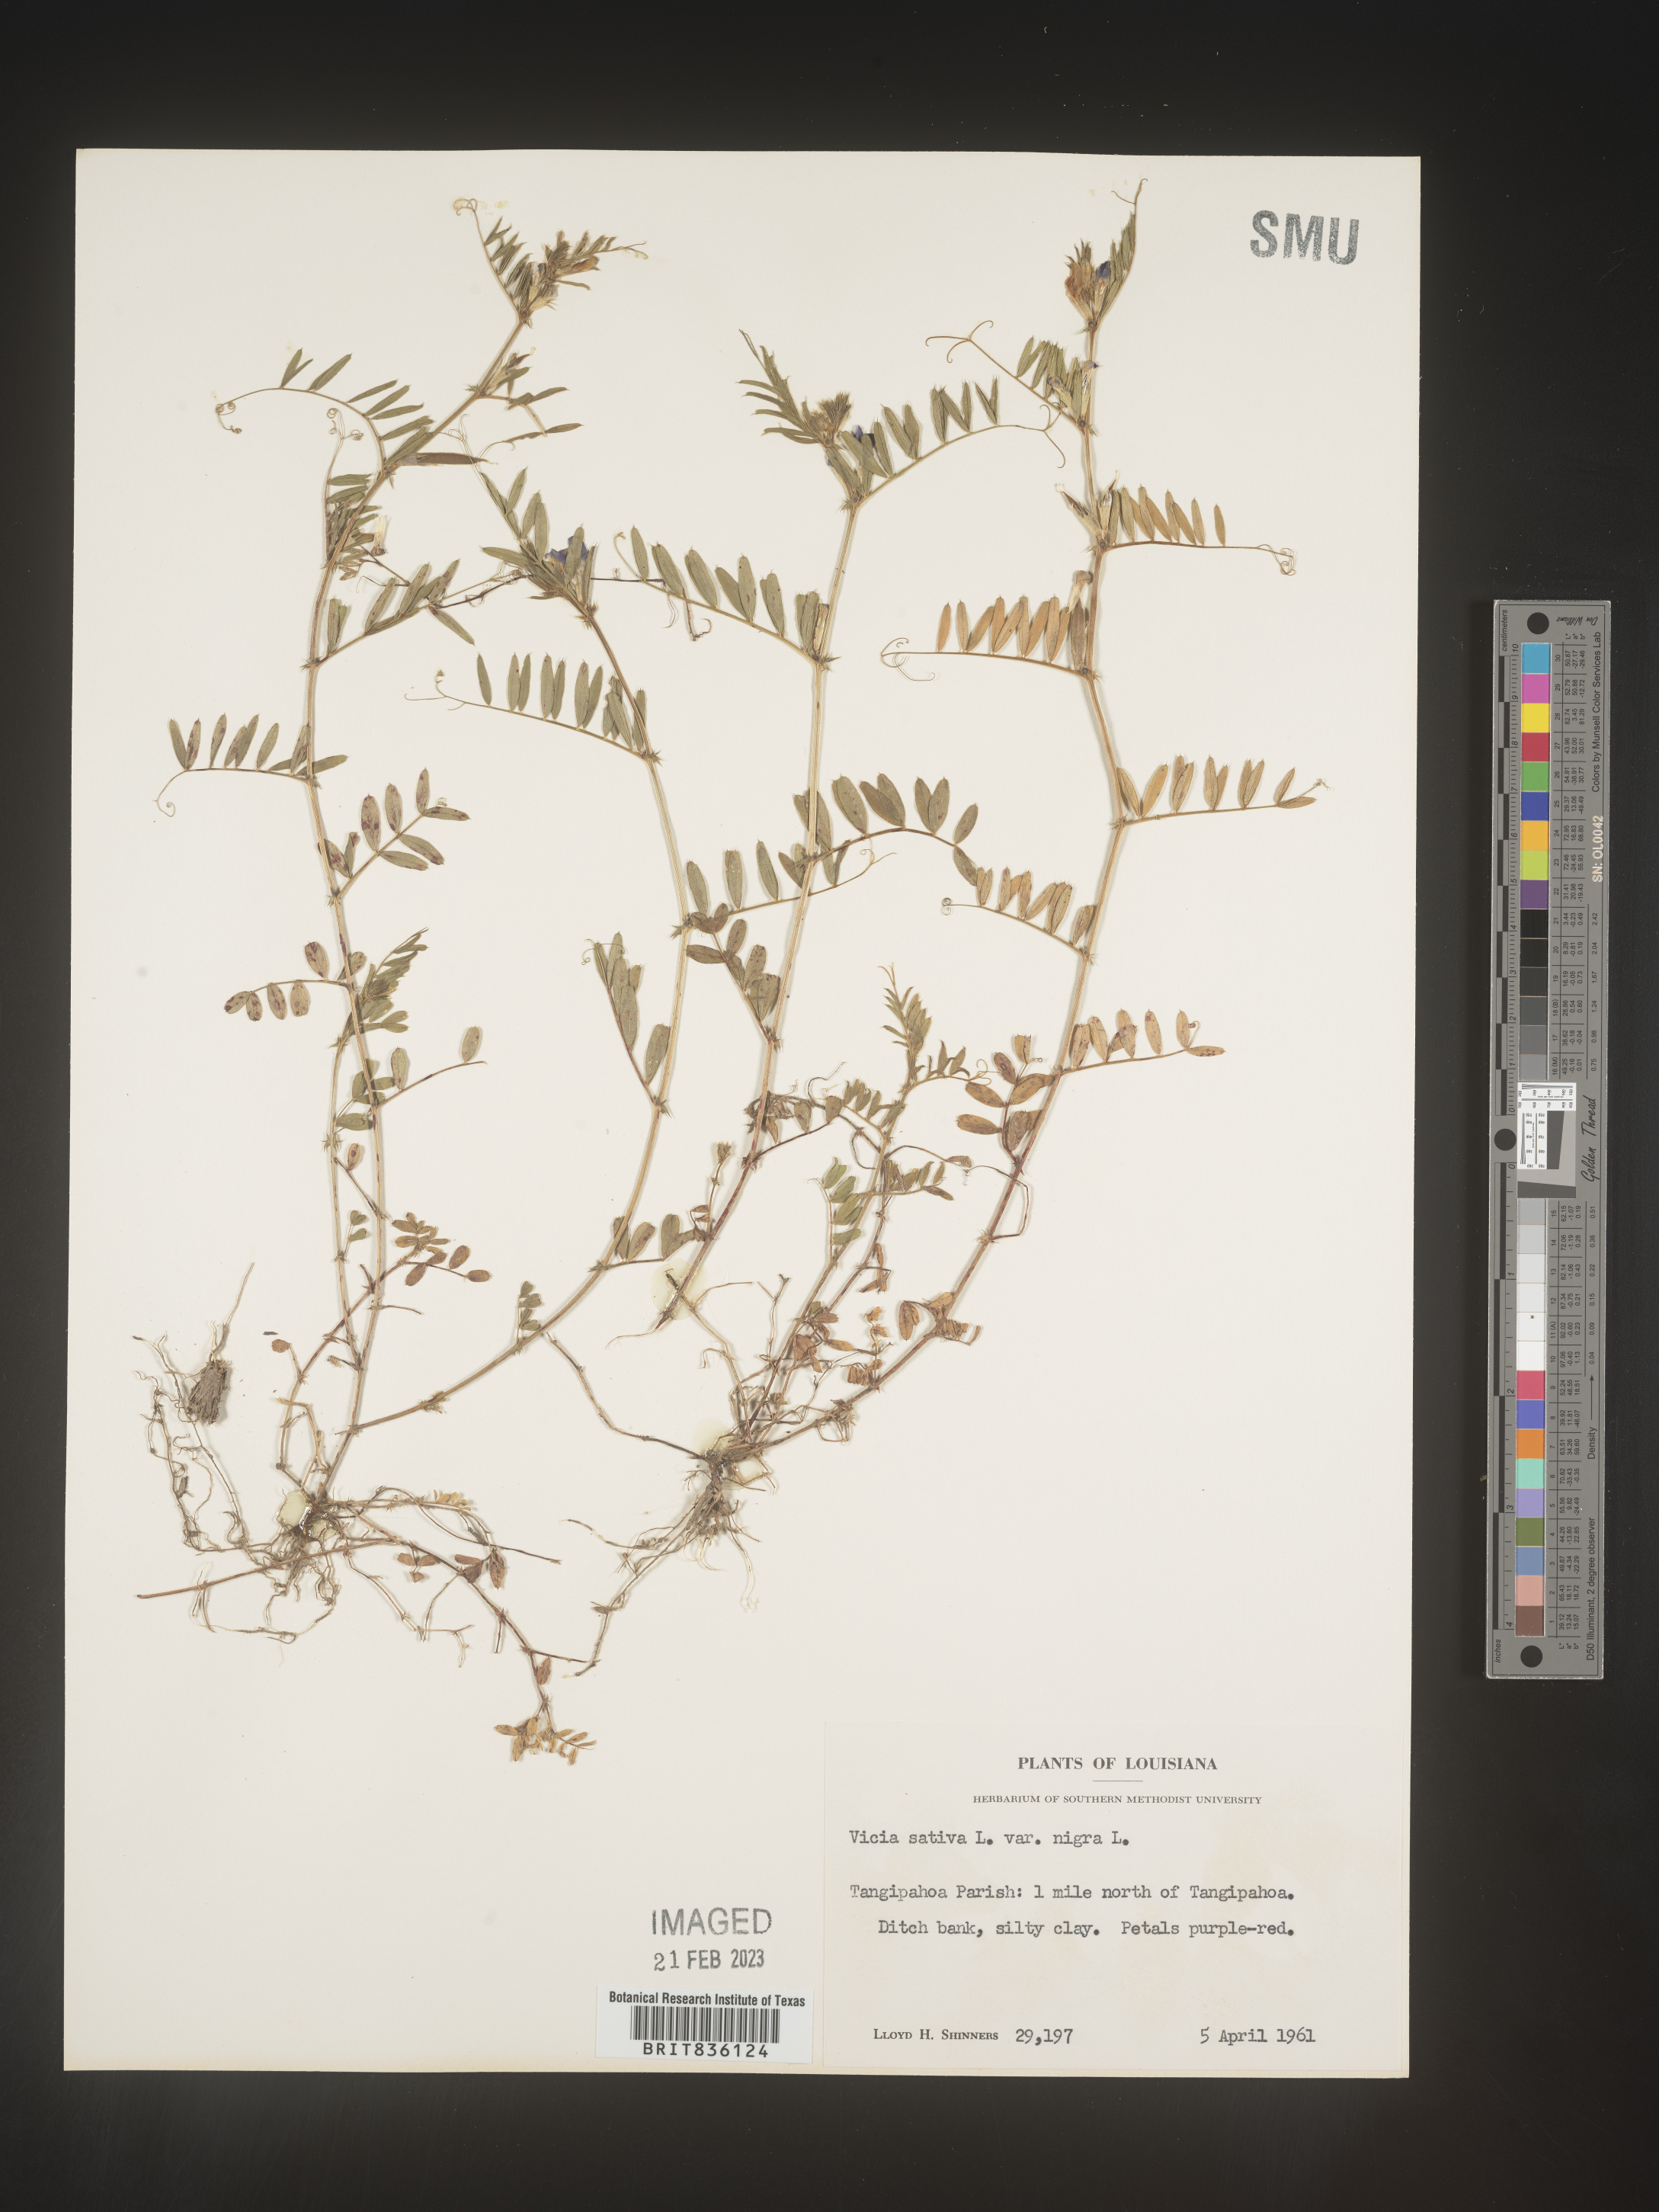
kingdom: Plantae
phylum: Tracheophyta
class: Magnoliopsida
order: Fabales
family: Fabaceae
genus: Vicia
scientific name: Vicia sativa
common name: Garden vetch
